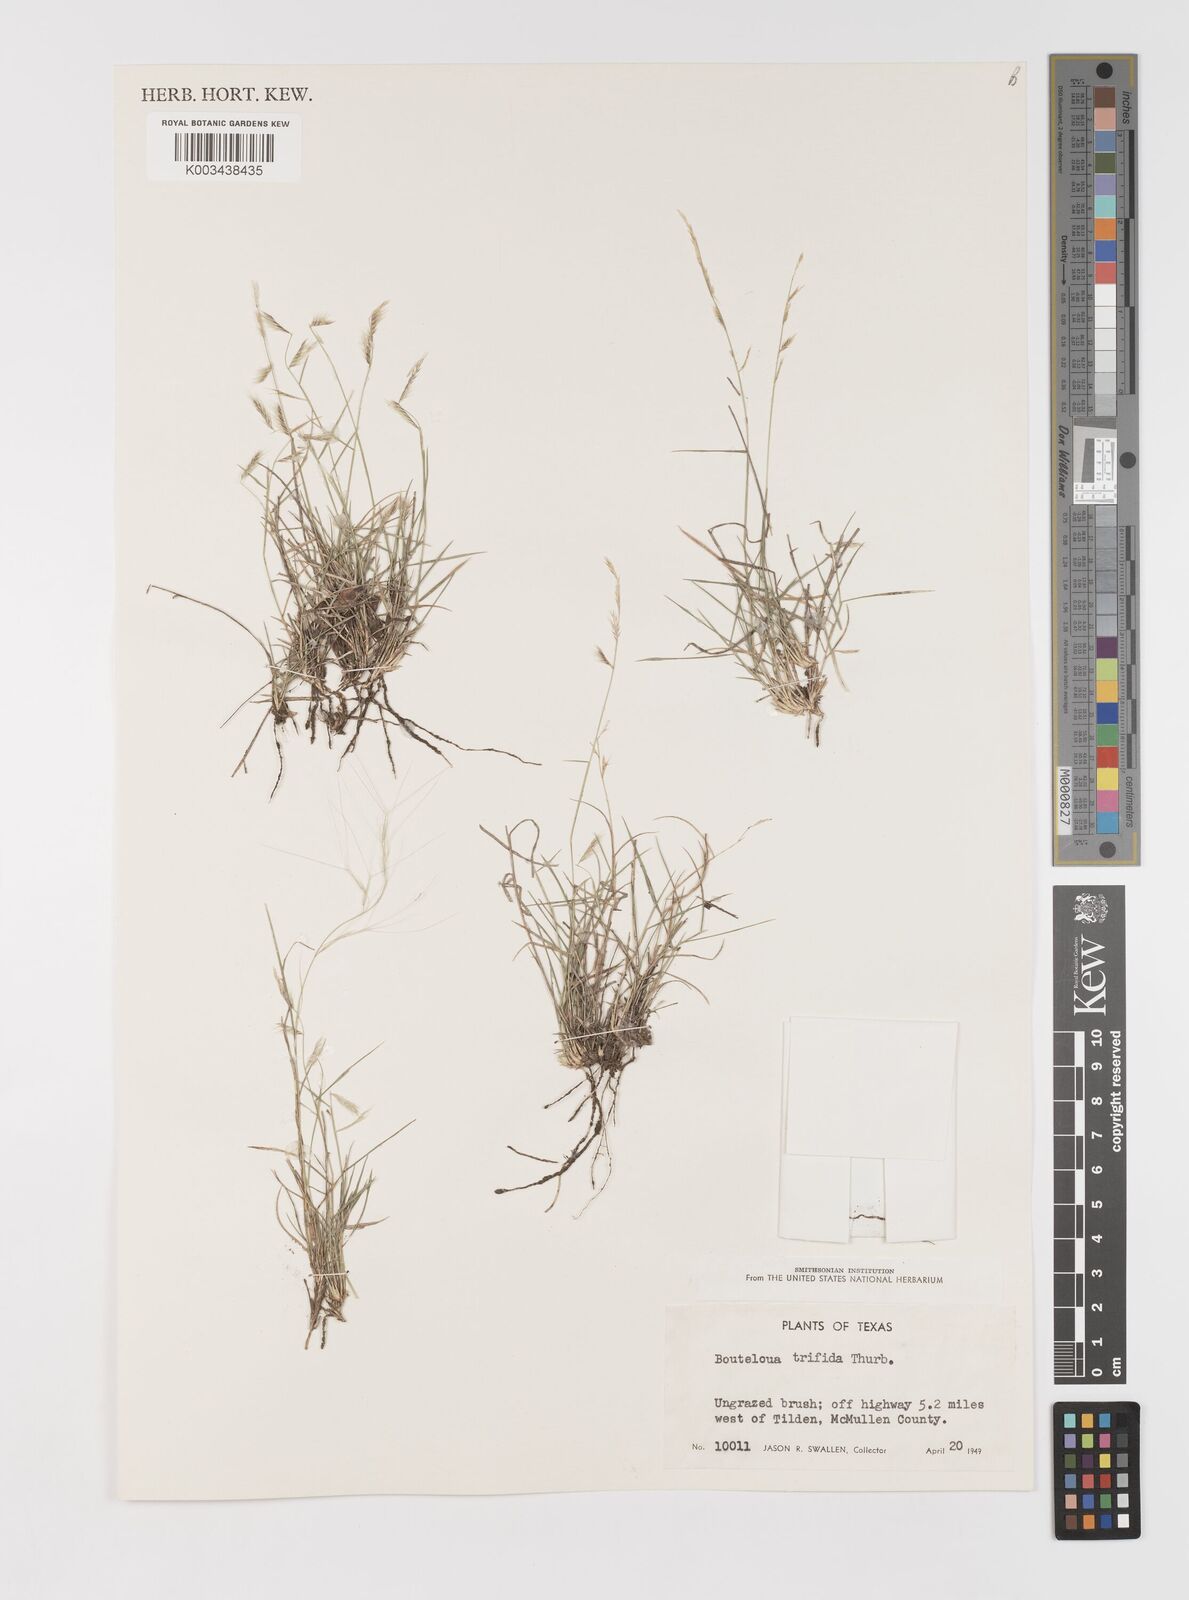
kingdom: Plantae
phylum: Tracheophyta
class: Liliopsida
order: Poales
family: Poaceae
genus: Bouteloua
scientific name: Bouteloua trifida
